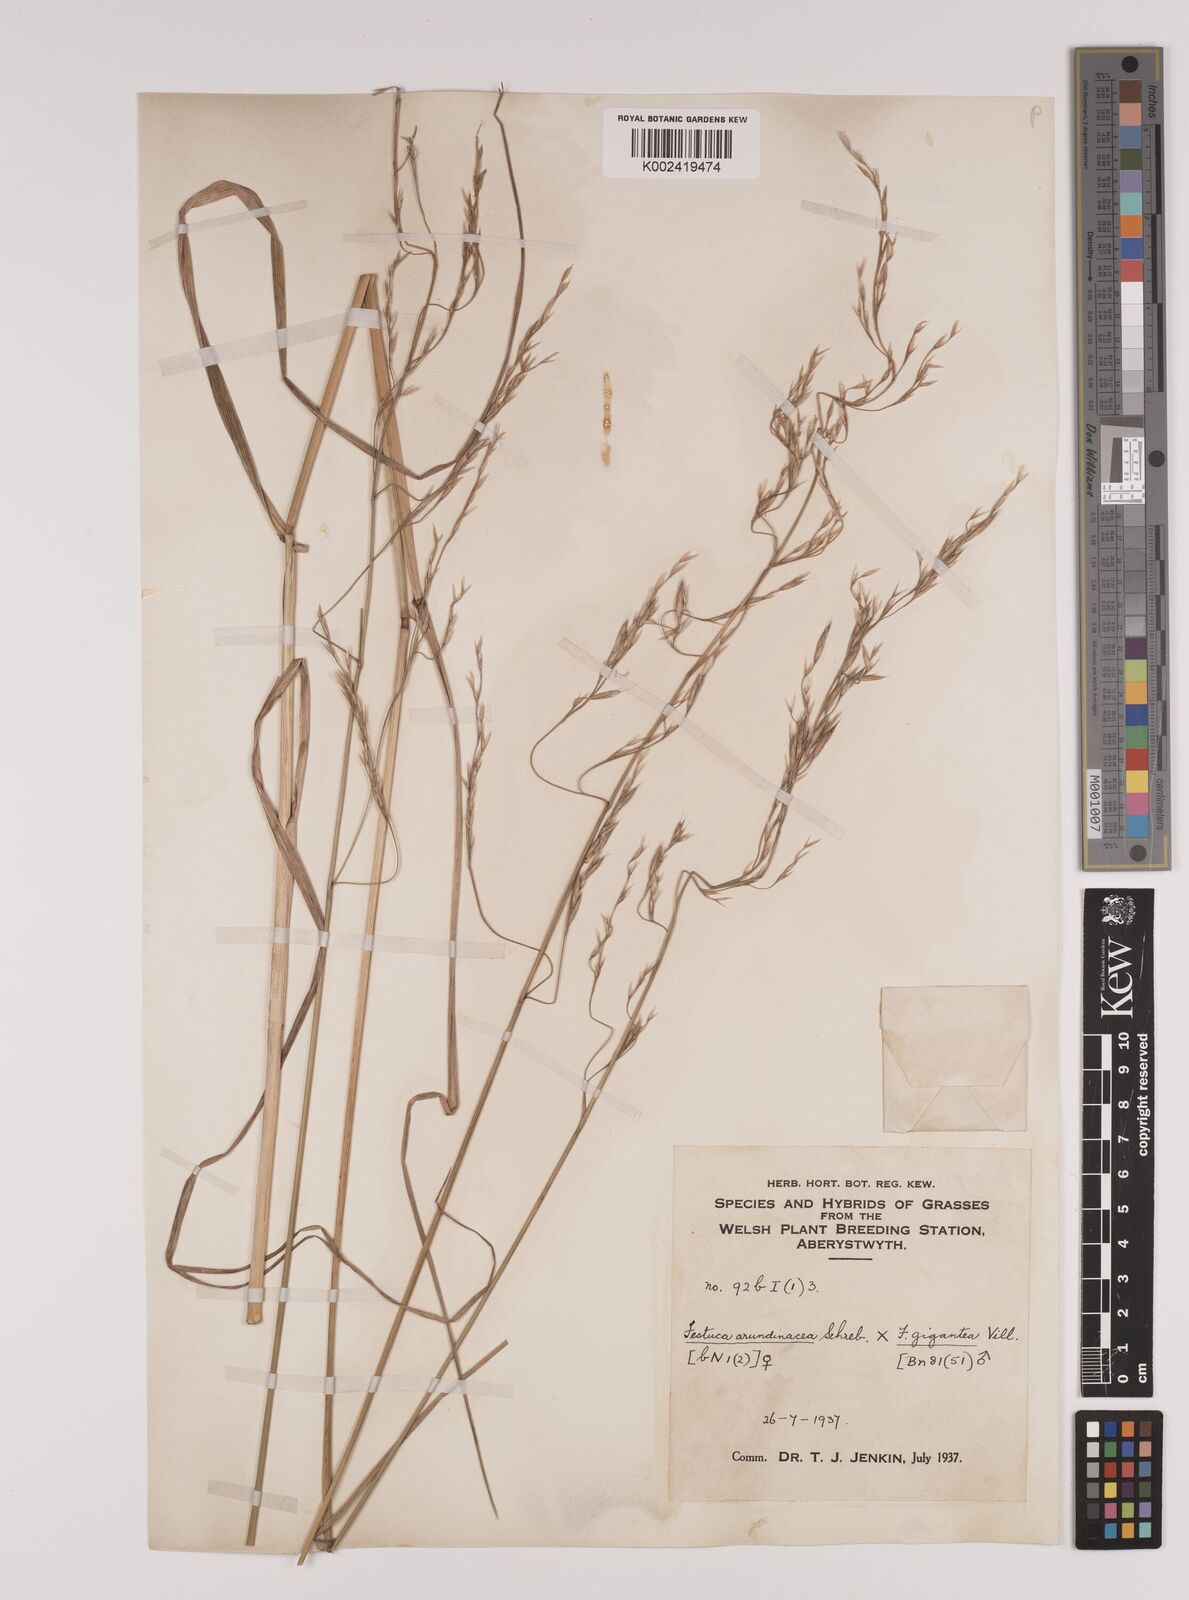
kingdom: Plantae
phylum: Tracheophyta
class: Liliopsida
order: Poales
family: Poaceae
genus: Lolium
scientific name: Lolium giganteum
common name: Giant fescue
